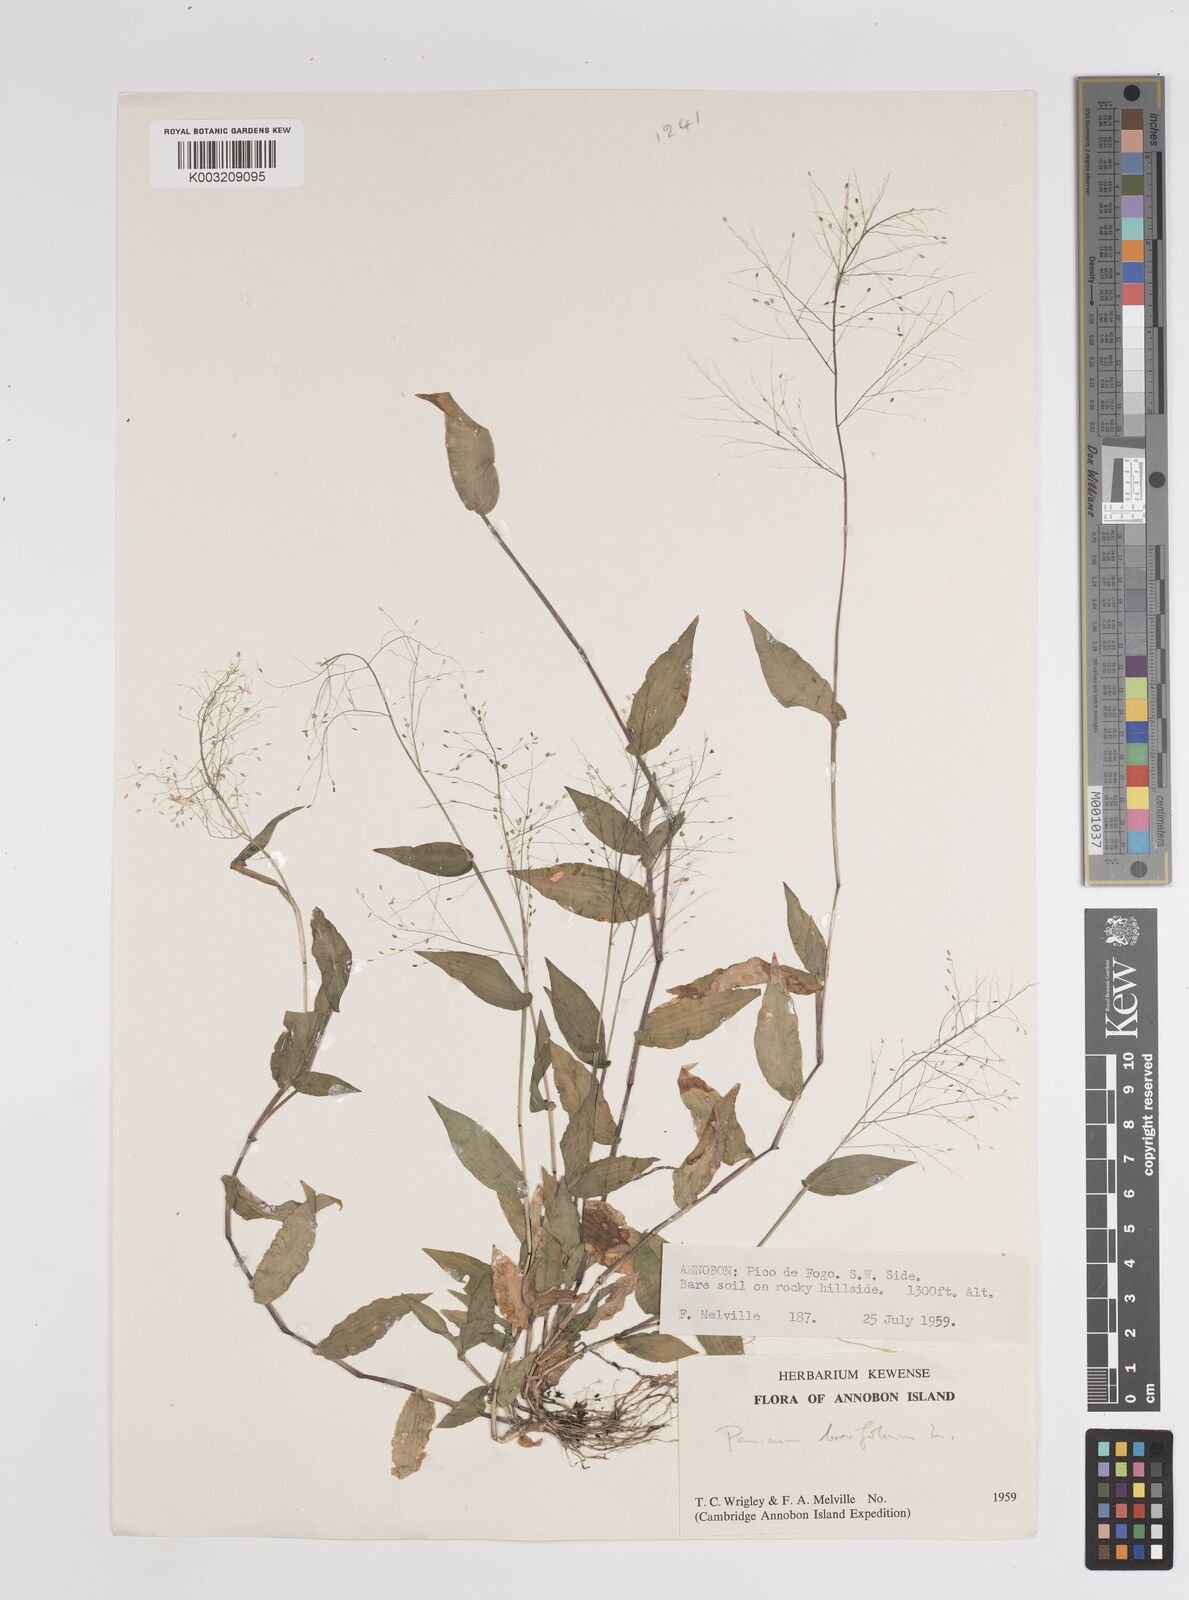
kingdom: Plantae
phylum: Tracheophyta
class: Liliopsida
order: Poales
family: Poaceae
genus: Panicum
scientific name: Panicum brevifolium
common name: Shortleaf panic grass
